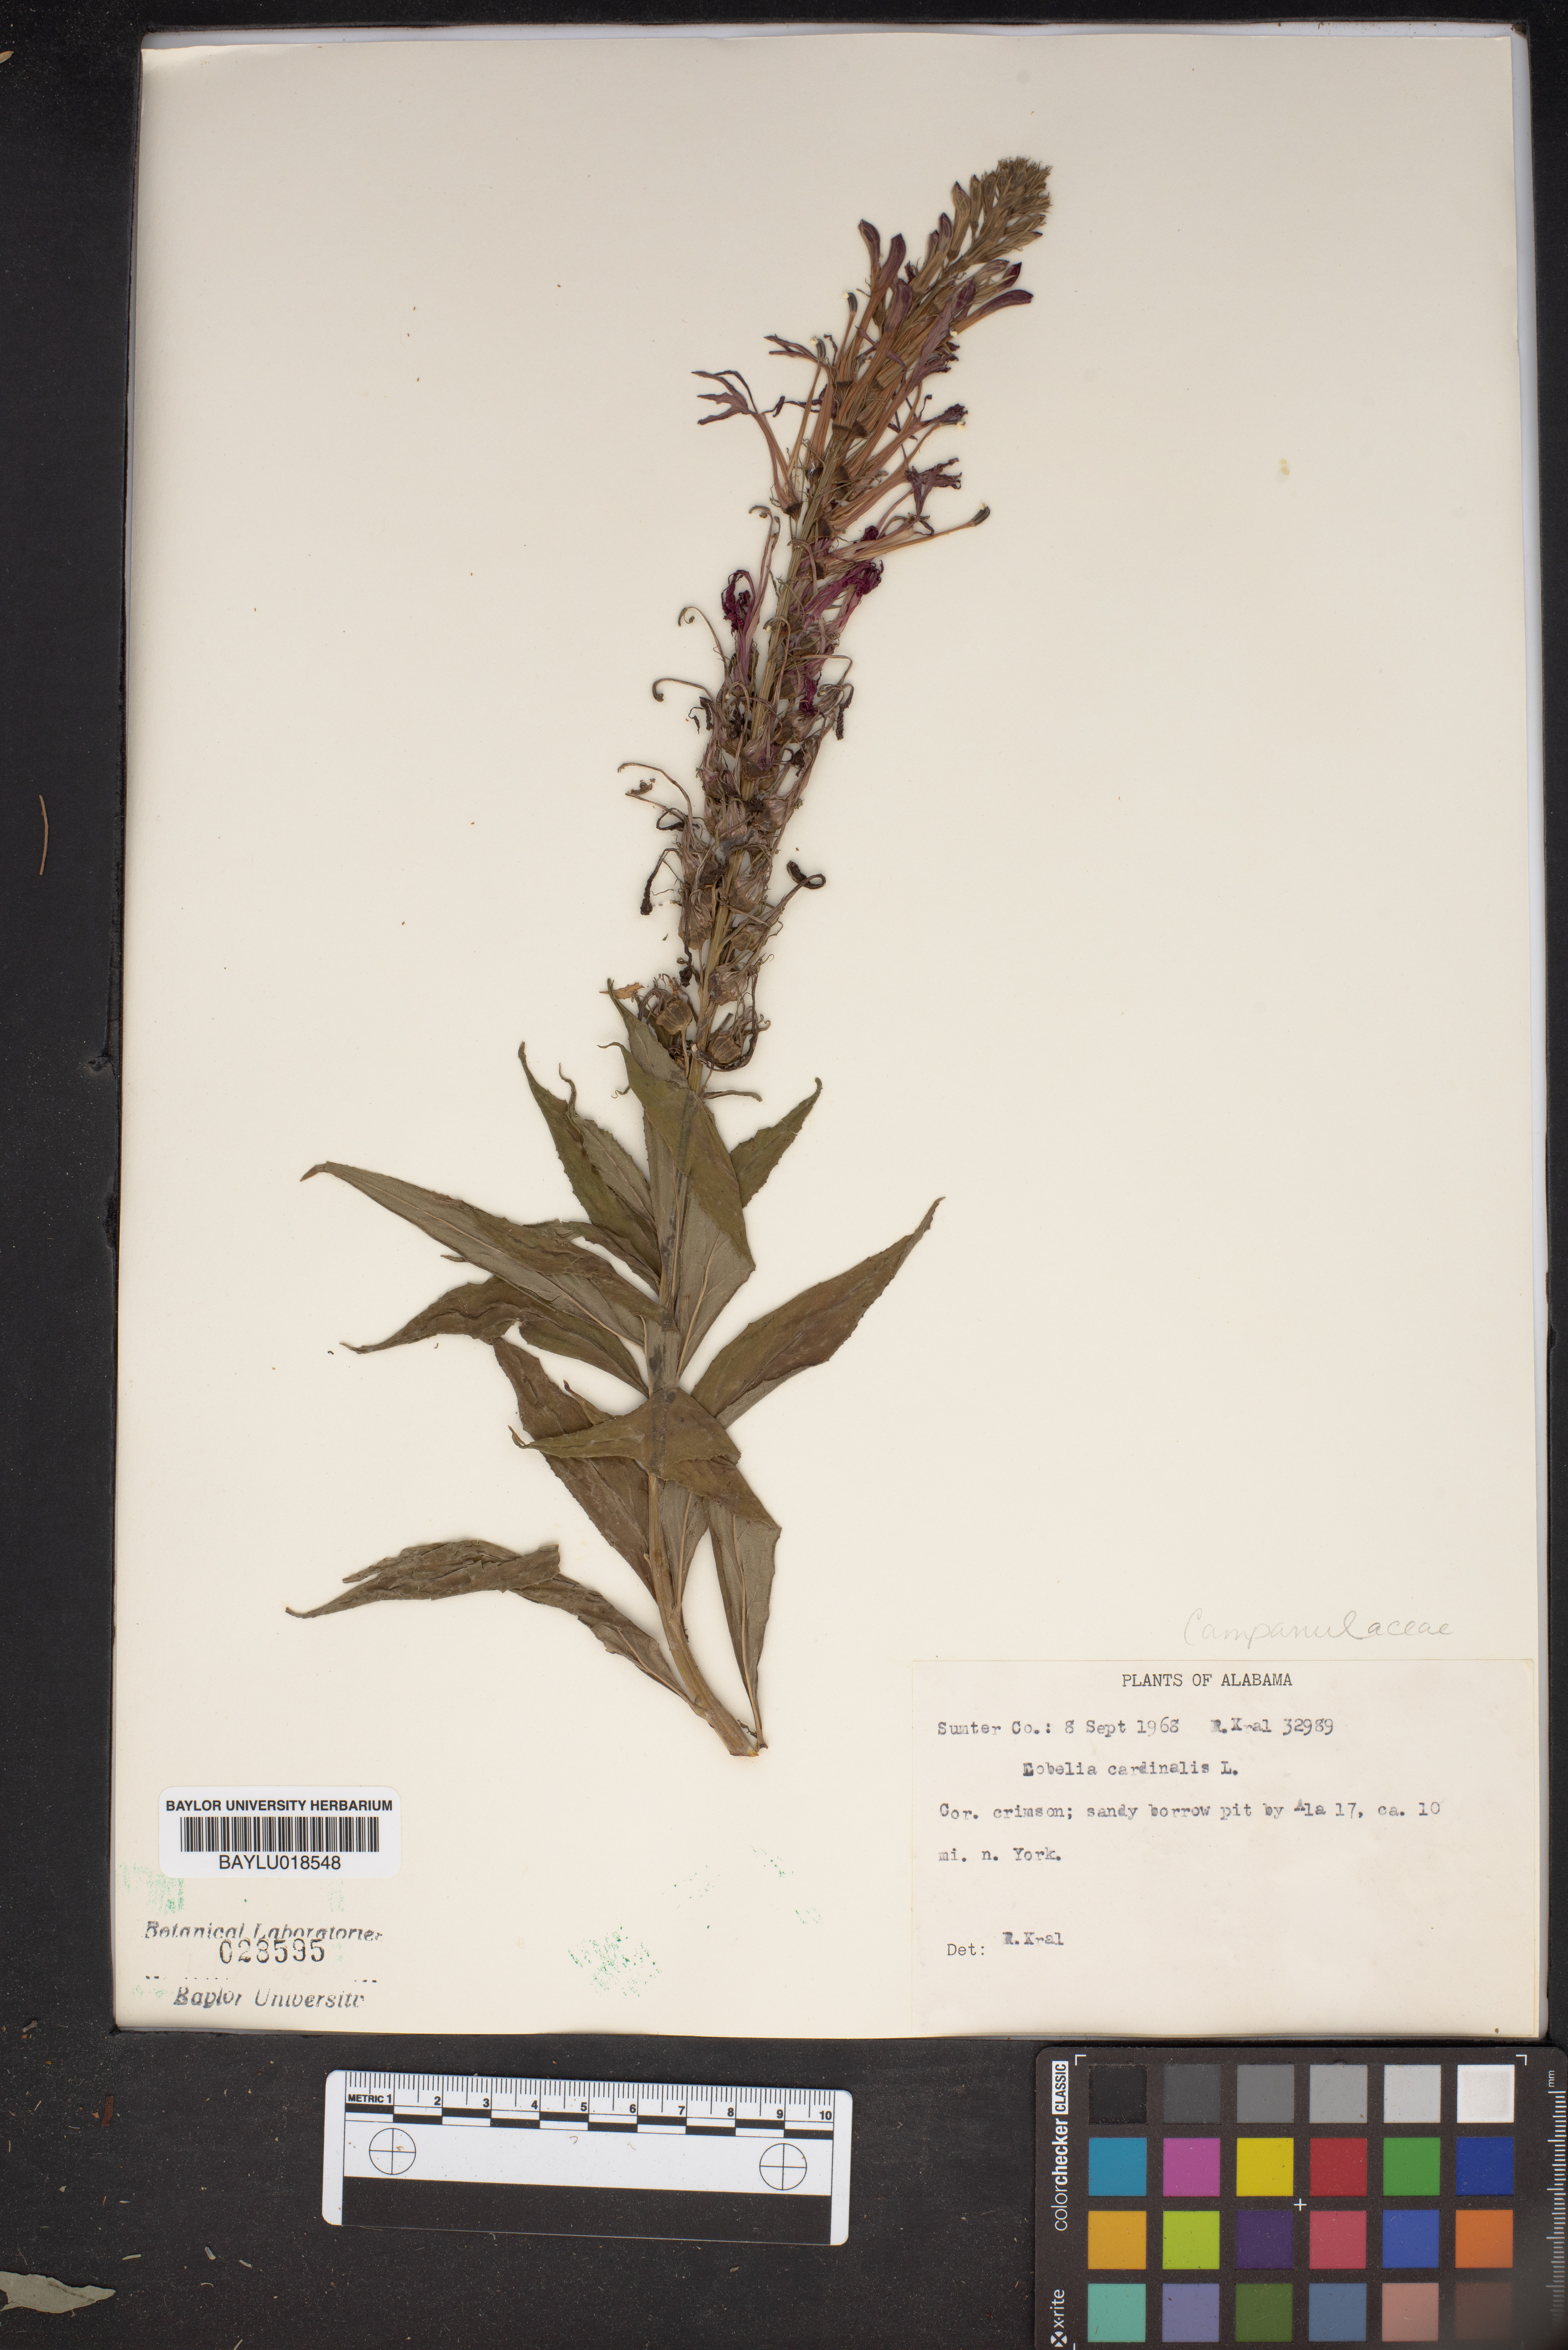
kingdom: Plantae
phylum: Tracheophyta
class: Magnoliopsida
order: Asterales
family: Campanulaceae
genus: Lobelia
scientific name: Lobelia cardinalis
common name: Cardinal flower
